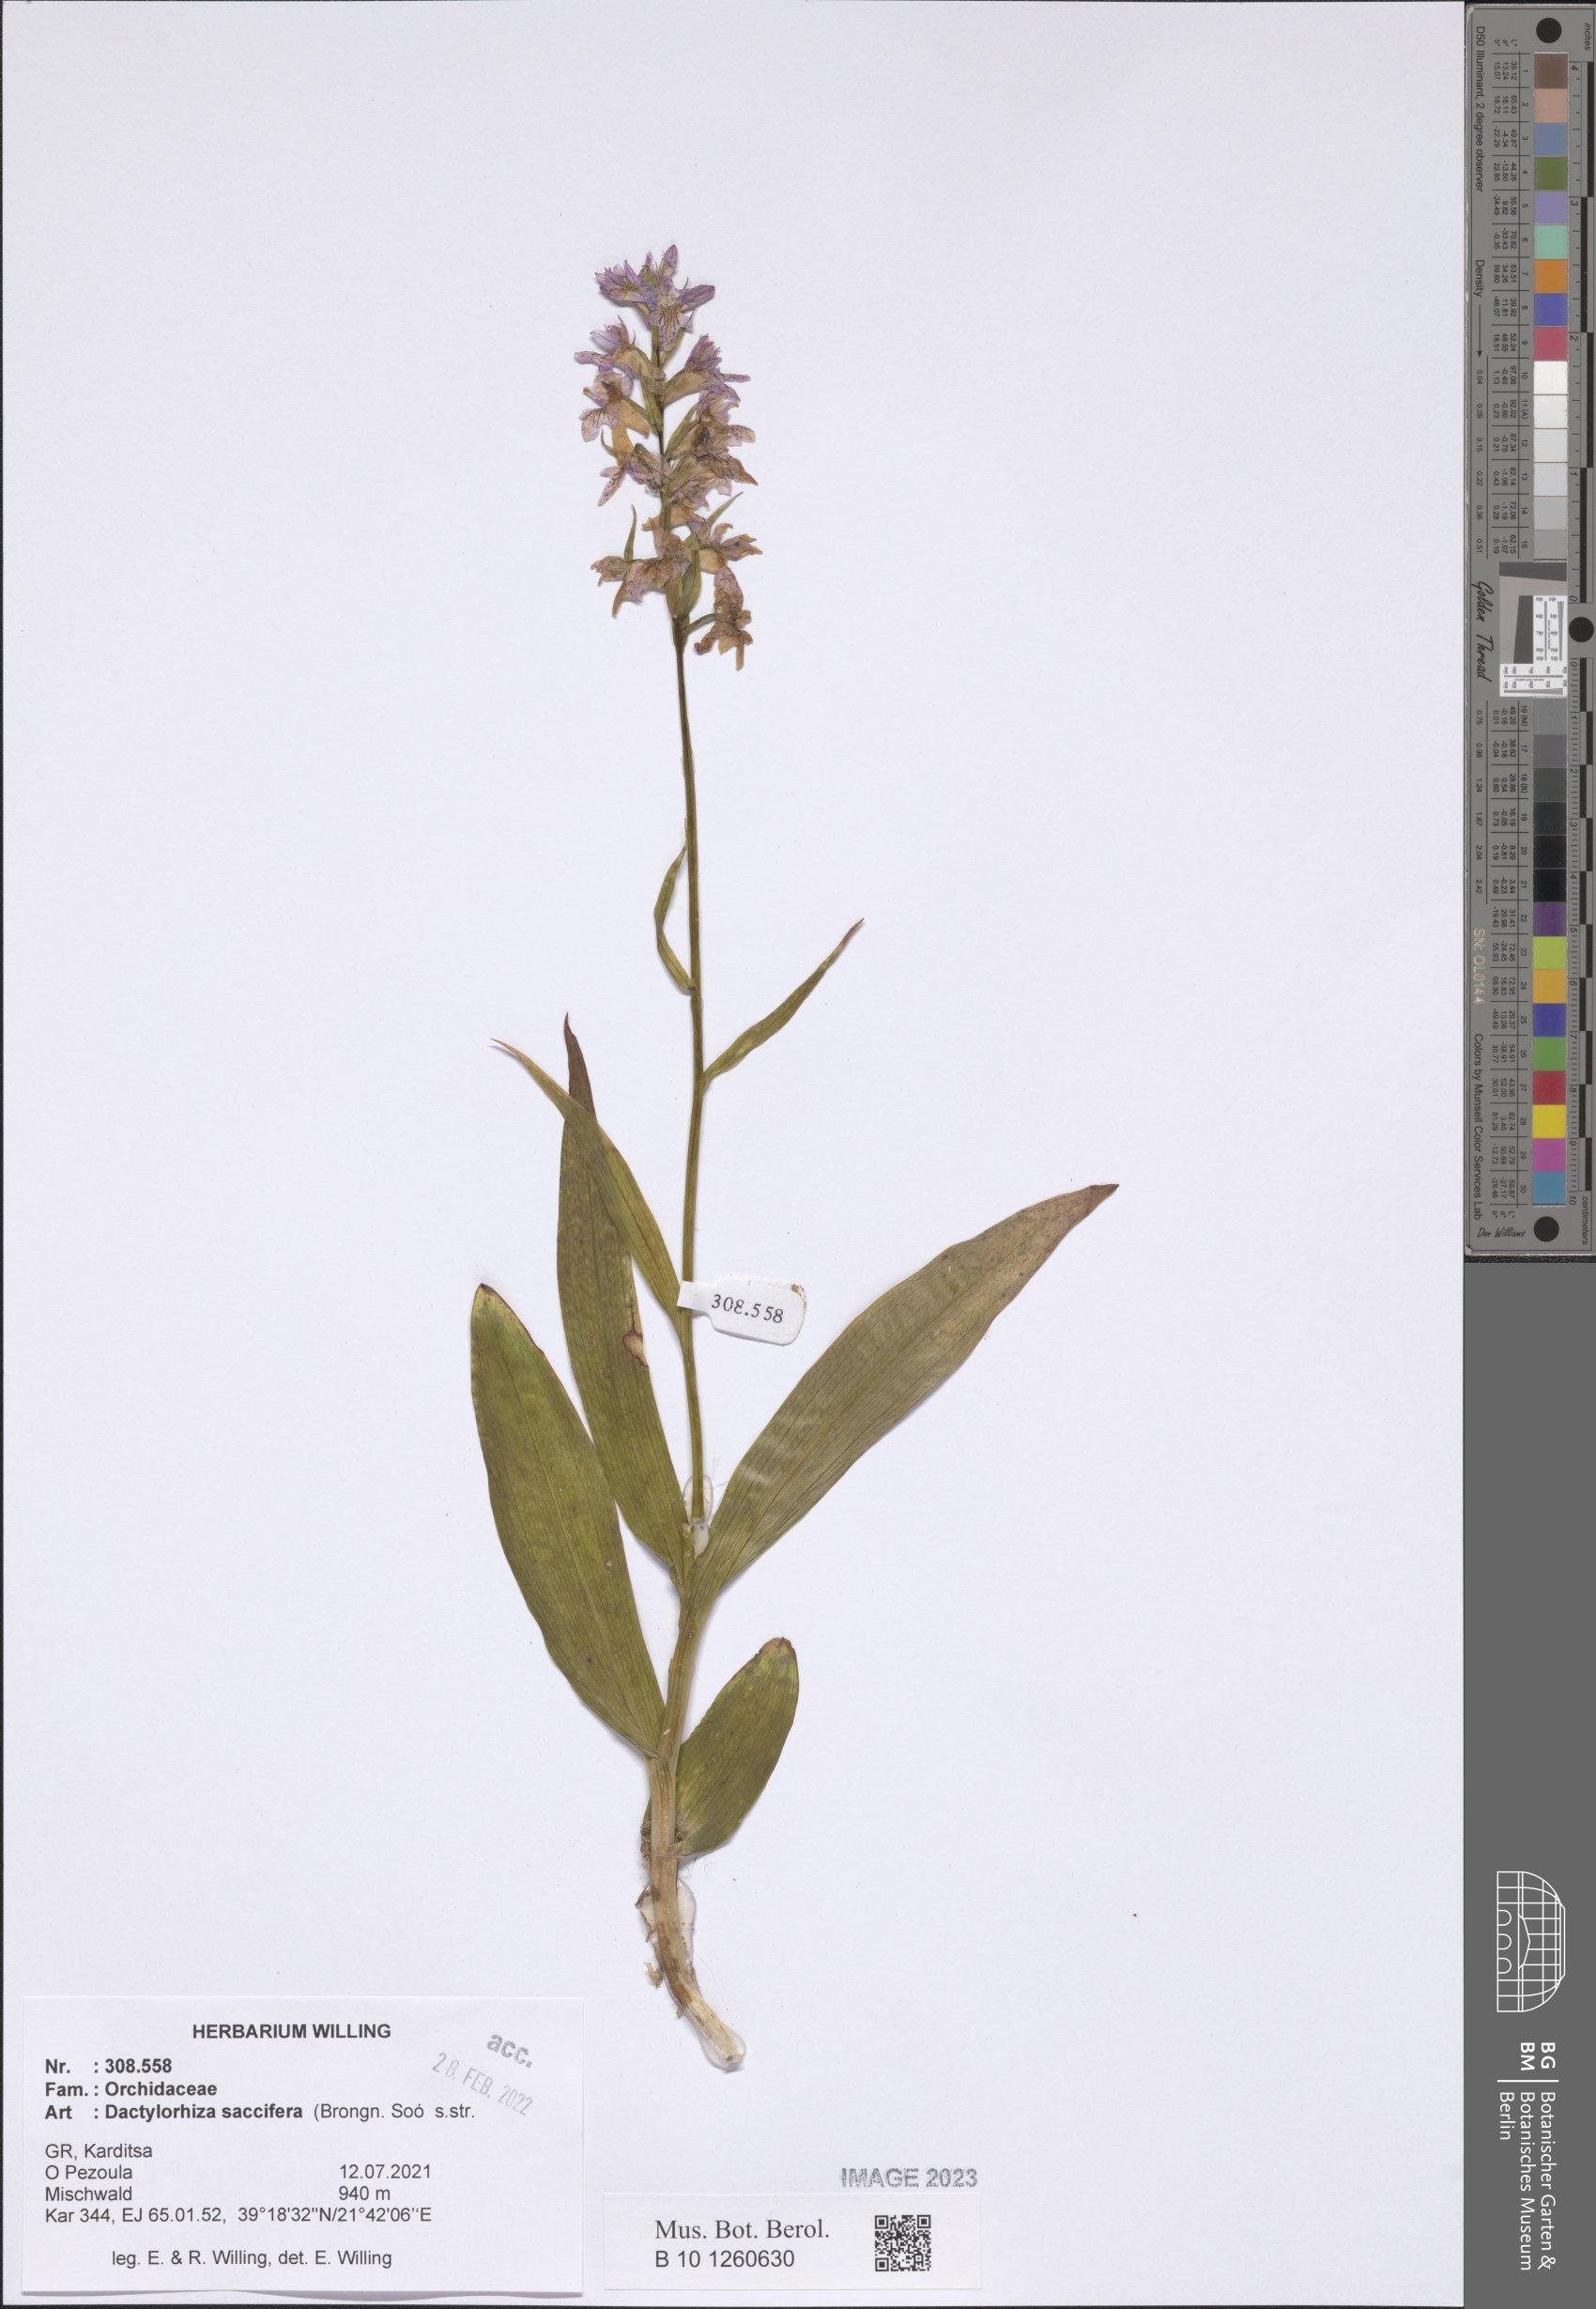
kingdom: Plantae
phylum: Tracheophyta
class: Liliopsida
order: Asparagales
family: Orchidaceae
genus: Dactylorhiza
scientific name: Dactylorhiza maculata
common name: Heath spotted-orchid
